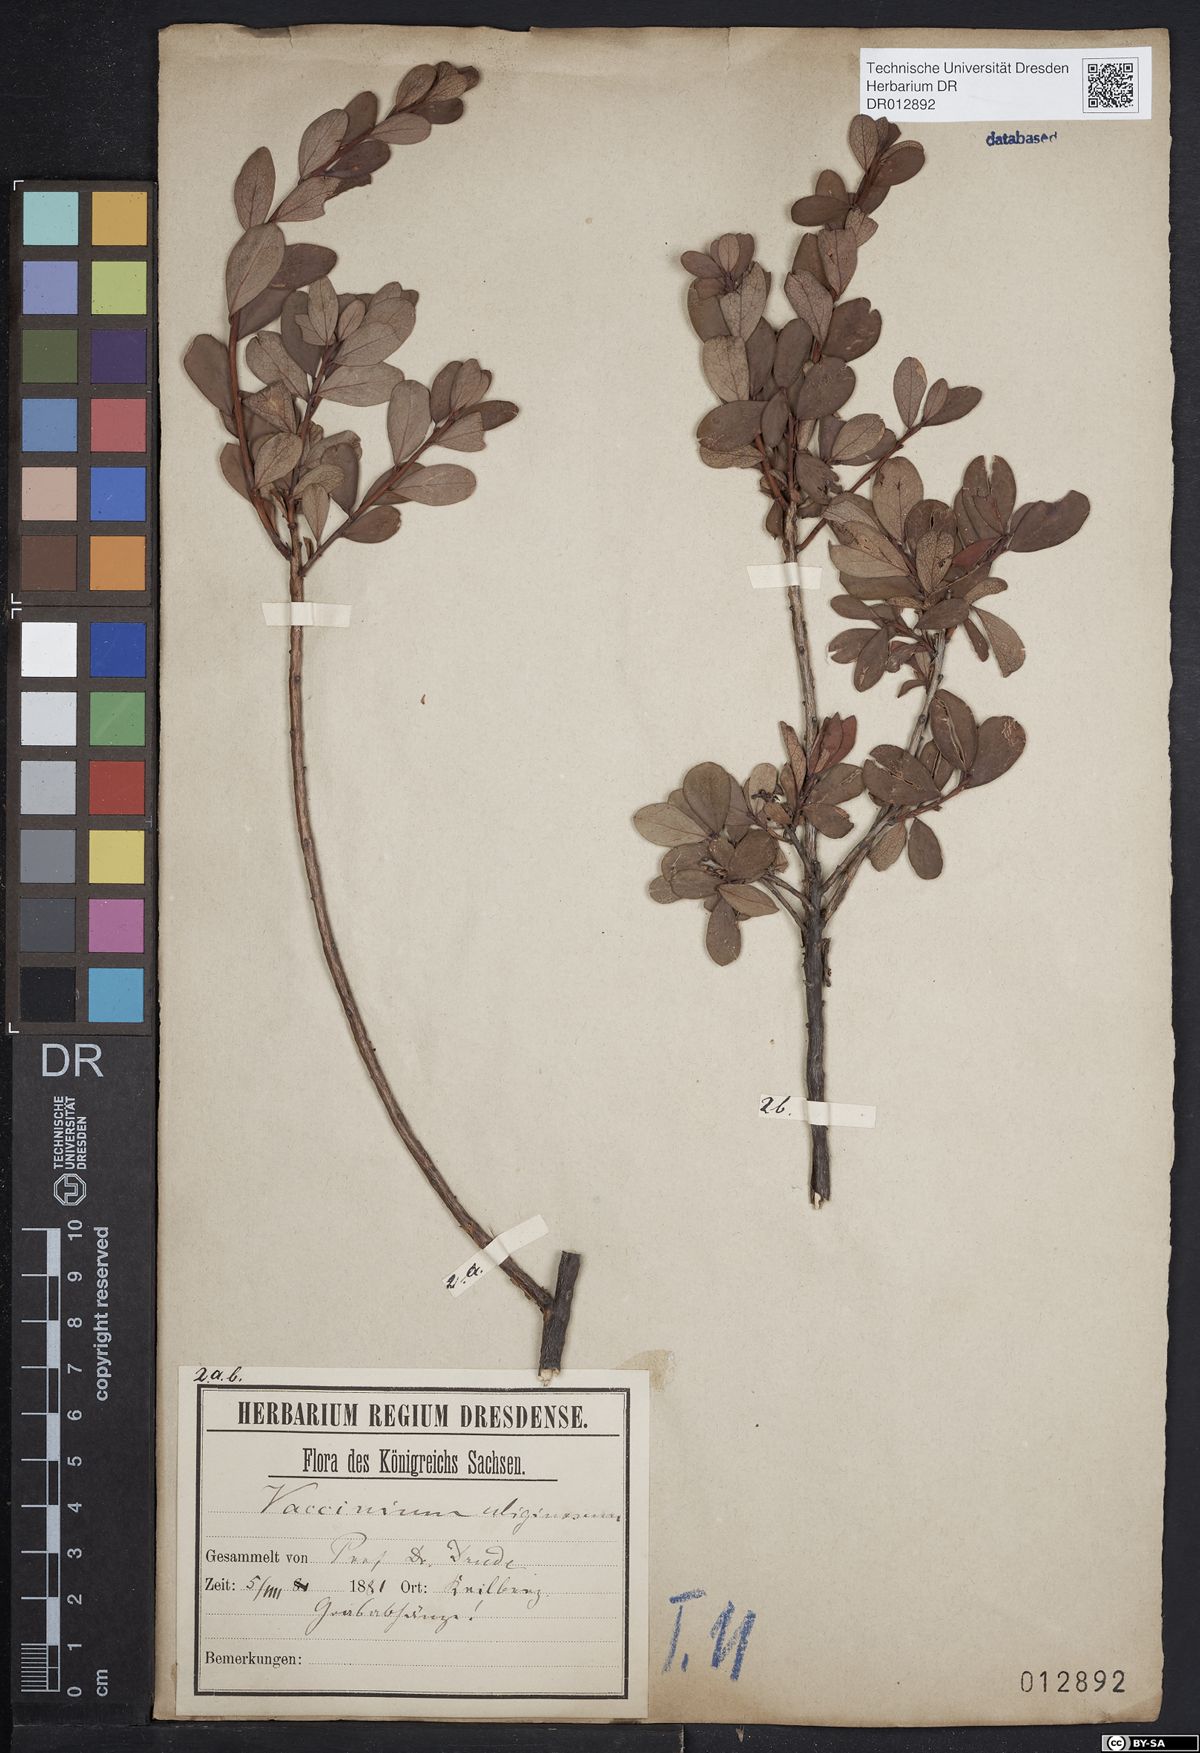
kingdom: Plantae
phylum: Tracheophyta
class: Magnoliopsida
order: Ericales
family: Ericaceae
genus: Vaccinium
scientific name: Vaccinium uliginosum
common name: Bog bilberry
